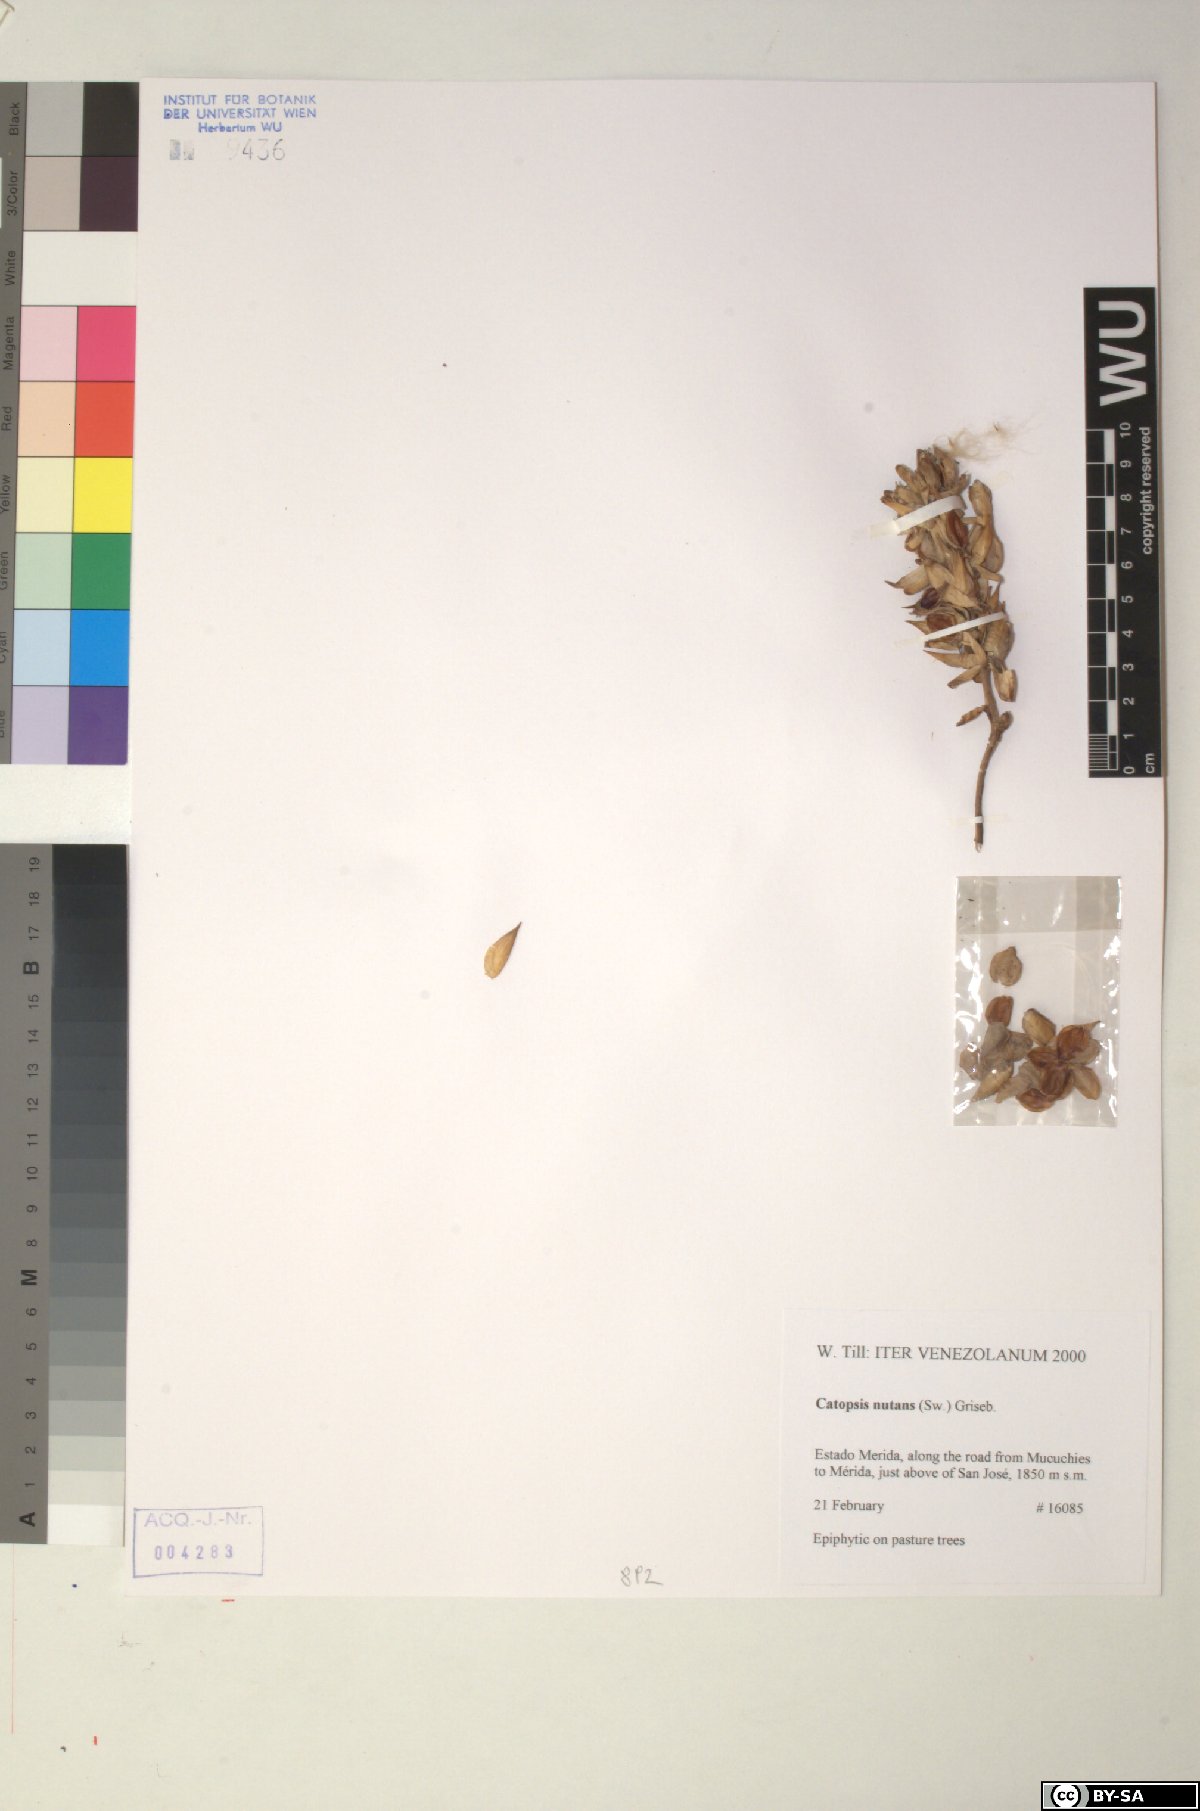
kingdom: Plantae
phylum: Tracheophyta
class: Liliopsida
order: Poales
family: Bromeliaceae
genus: Catopsis
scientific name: Catopsis nutans
